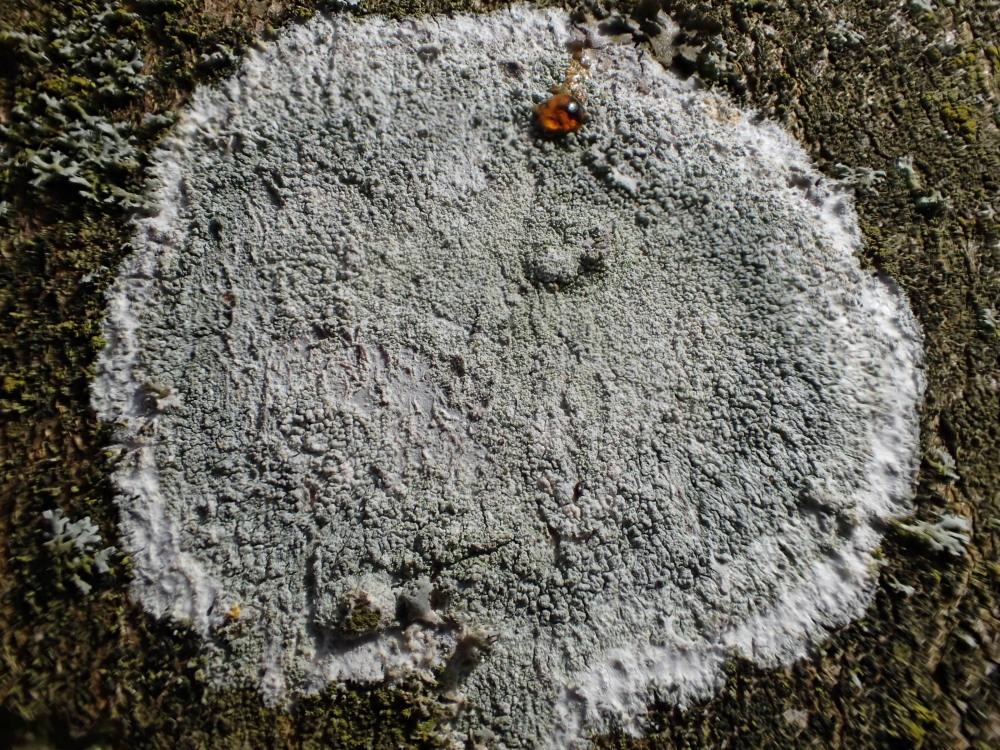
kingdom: Fungi
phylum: Ascomycota
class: Lecanoromycetes
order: Ostropales
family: Phlyctidaceae
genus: Phlyctis
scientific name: Phlyctis argena
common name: almindelig sølvlav
